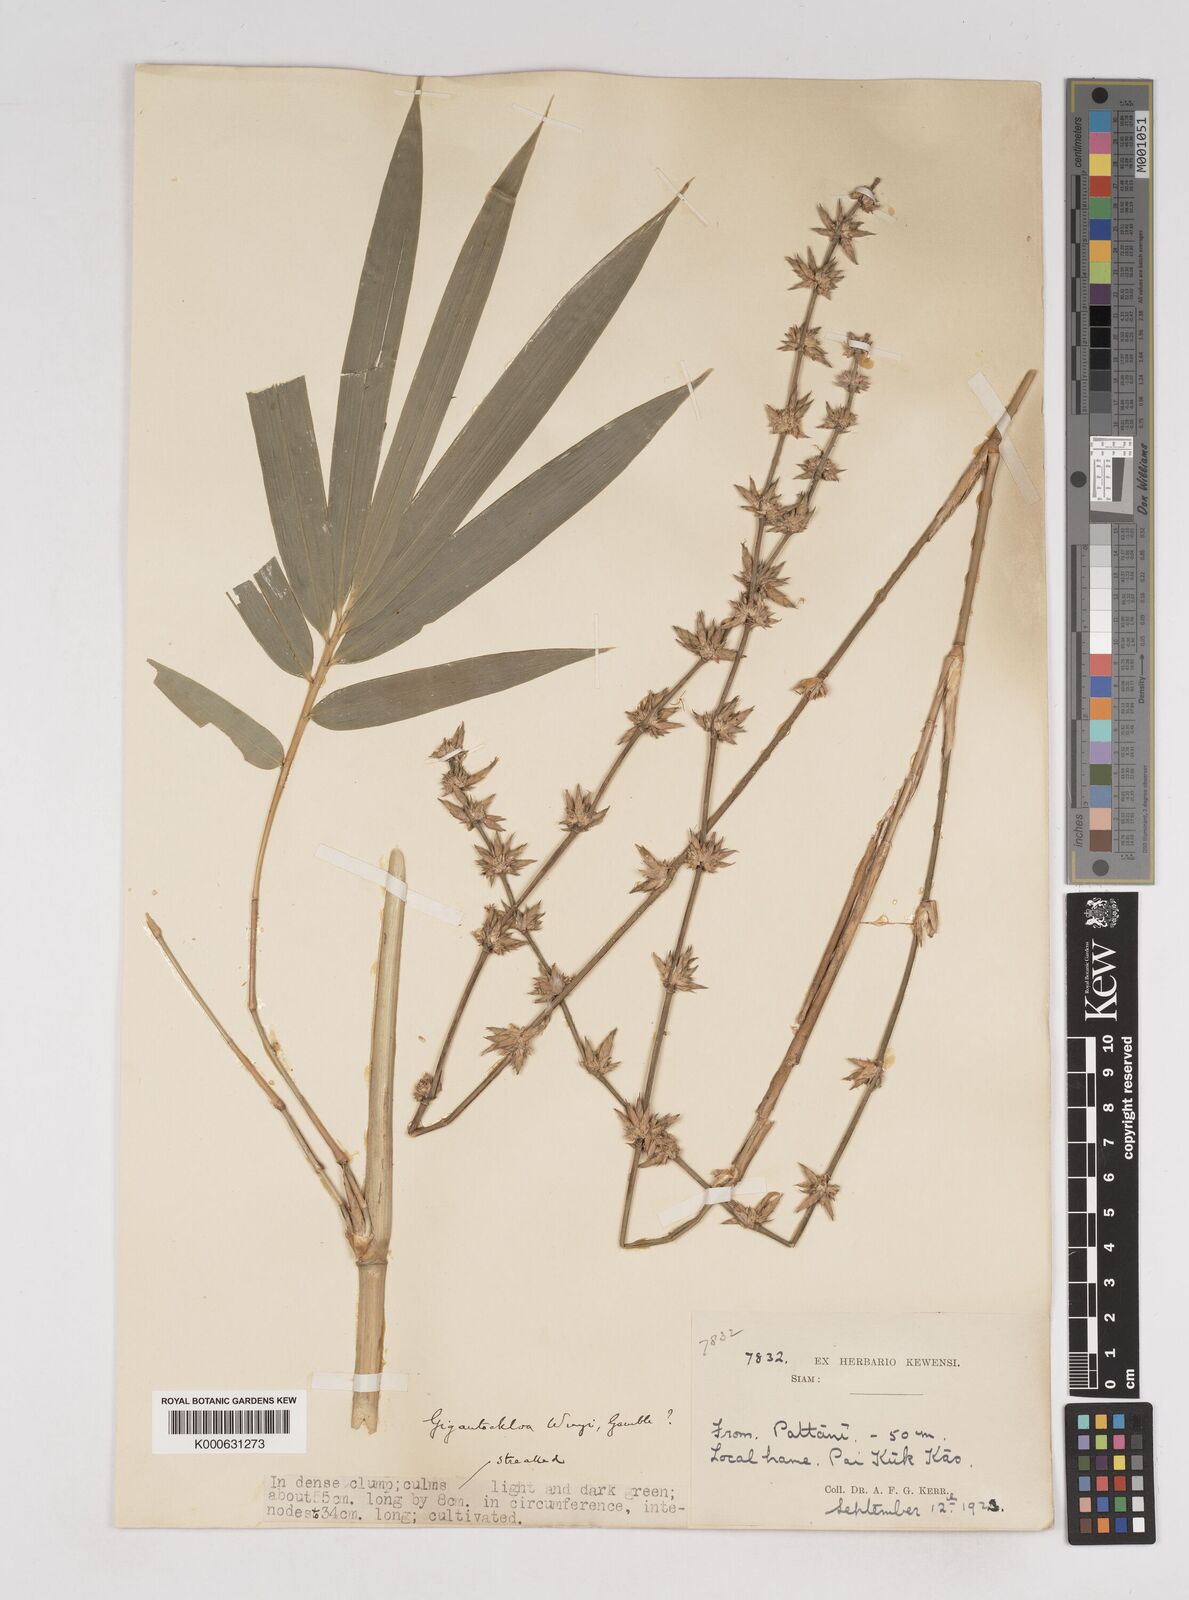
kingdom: Plantae
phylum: Tracheophyta
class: Liliopsida
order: Poales
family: Poaceae
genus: Gigantochloa
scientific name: Gigantochloa
